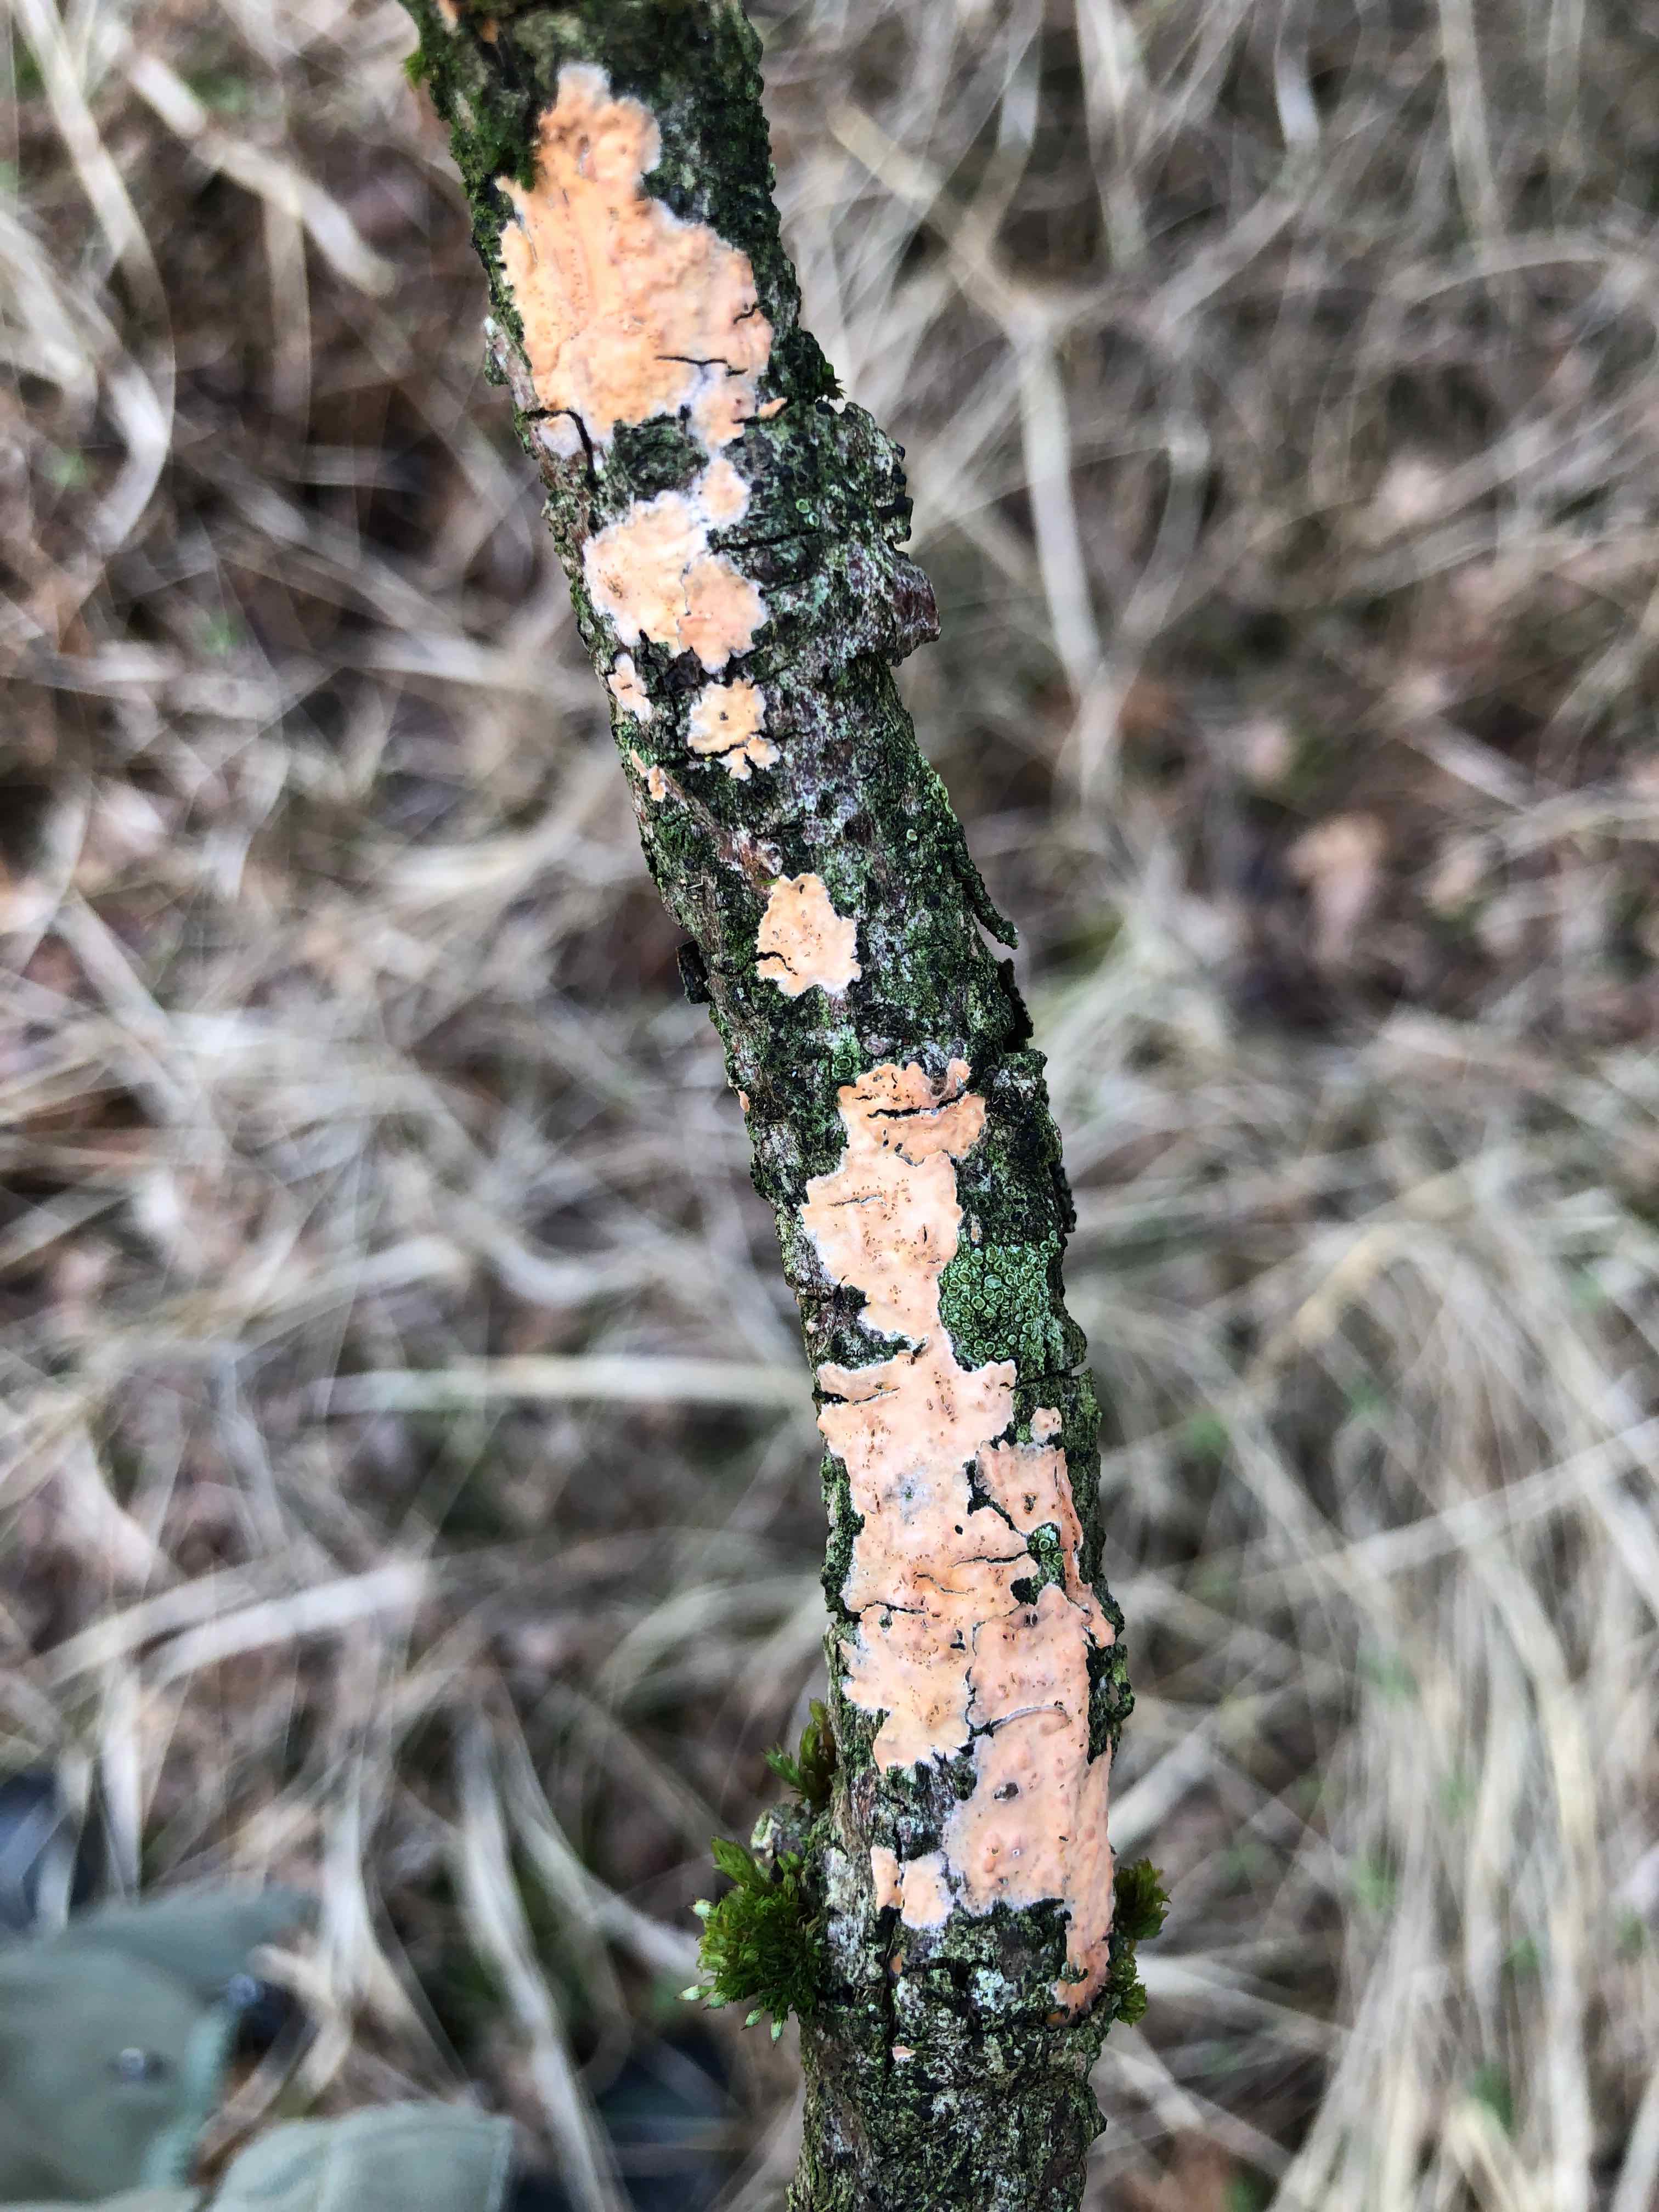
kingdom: Fungi
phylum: Basidiomycota
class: Agaricomycetes
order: Russulales
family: Peniophoraceae
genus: Peniophora
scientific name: Peniophora incarnata
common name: laksefarvet voksskind
